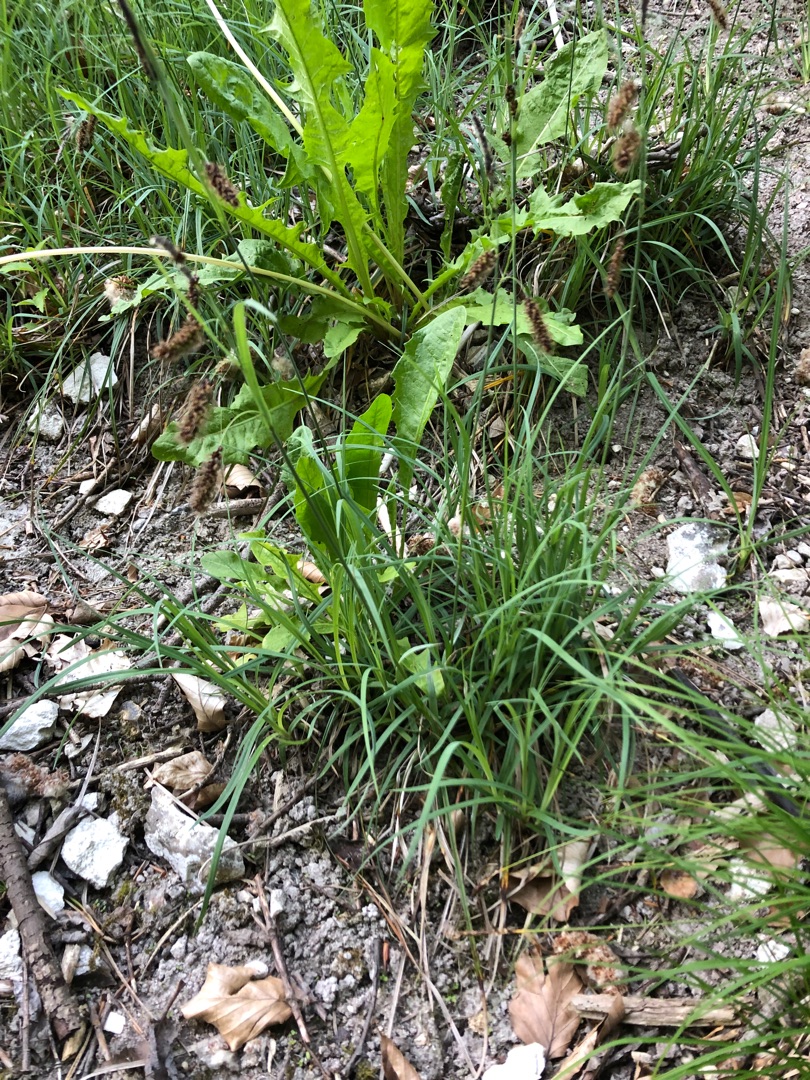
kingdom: Plantae
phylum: Tracheophyta
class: Liliopsida
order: Poales
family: Cyperaceae
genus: Carex
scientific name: Carex flacca
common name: Blågrøn star
